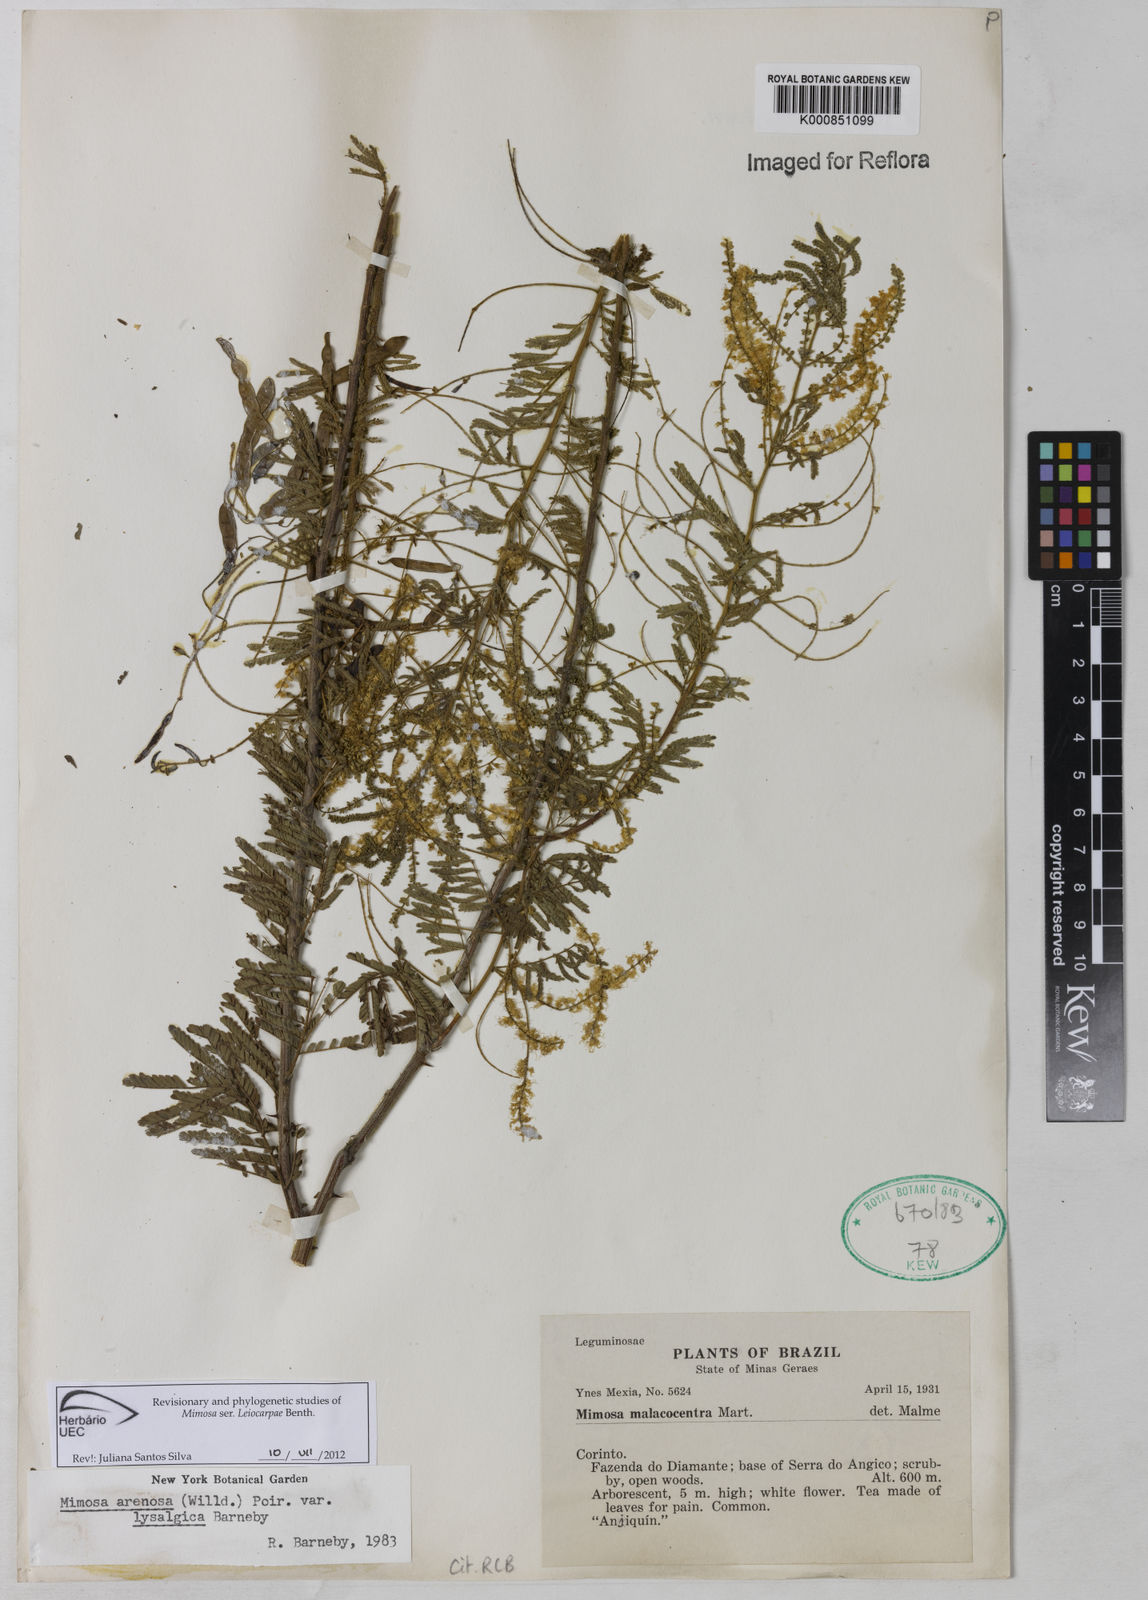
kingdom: Plantae
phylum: Tracheophyta
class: Magnoliopsida
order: Fabales
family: Fabaceae
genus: Mimosa
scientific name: Mimosa arenosa
